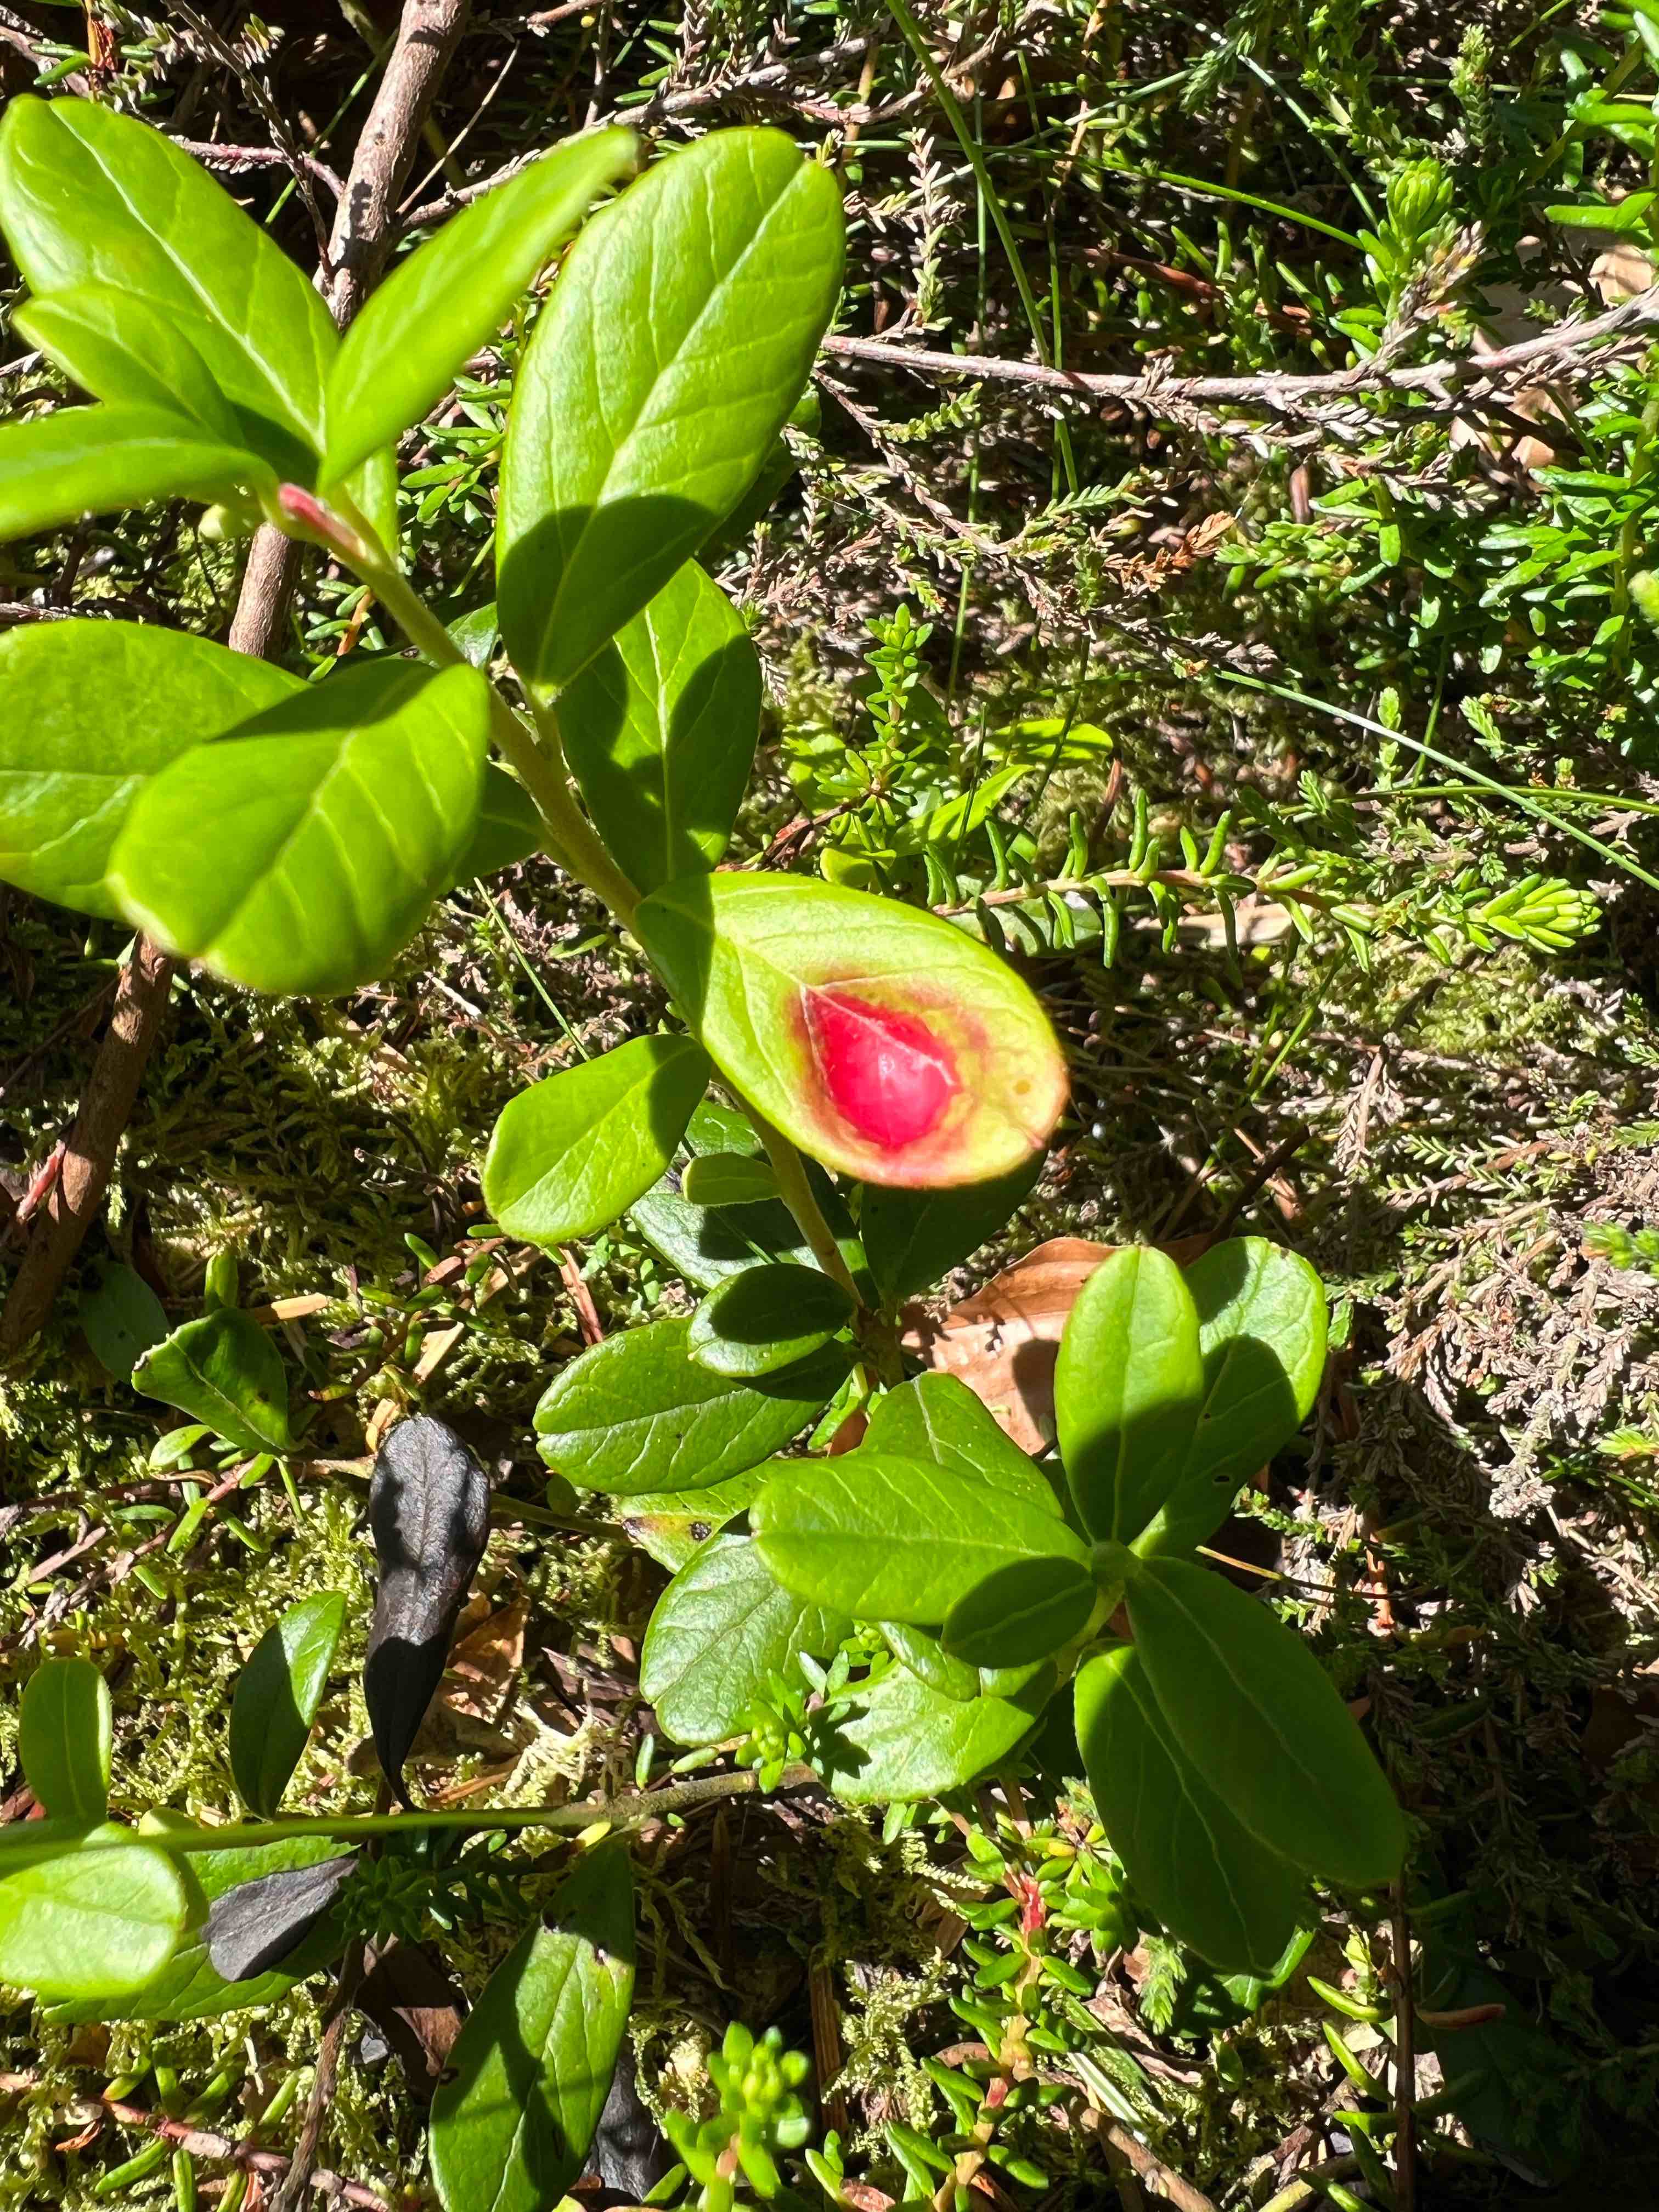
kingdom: Fungi
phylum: Basidiomycota
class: Exobasidiomycetes
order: Exobasidiales
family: Exobasidiaceae
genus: Exobasidium
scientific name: Exobasidium vaccinii
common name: tyttebærblad-bøllesvamp
